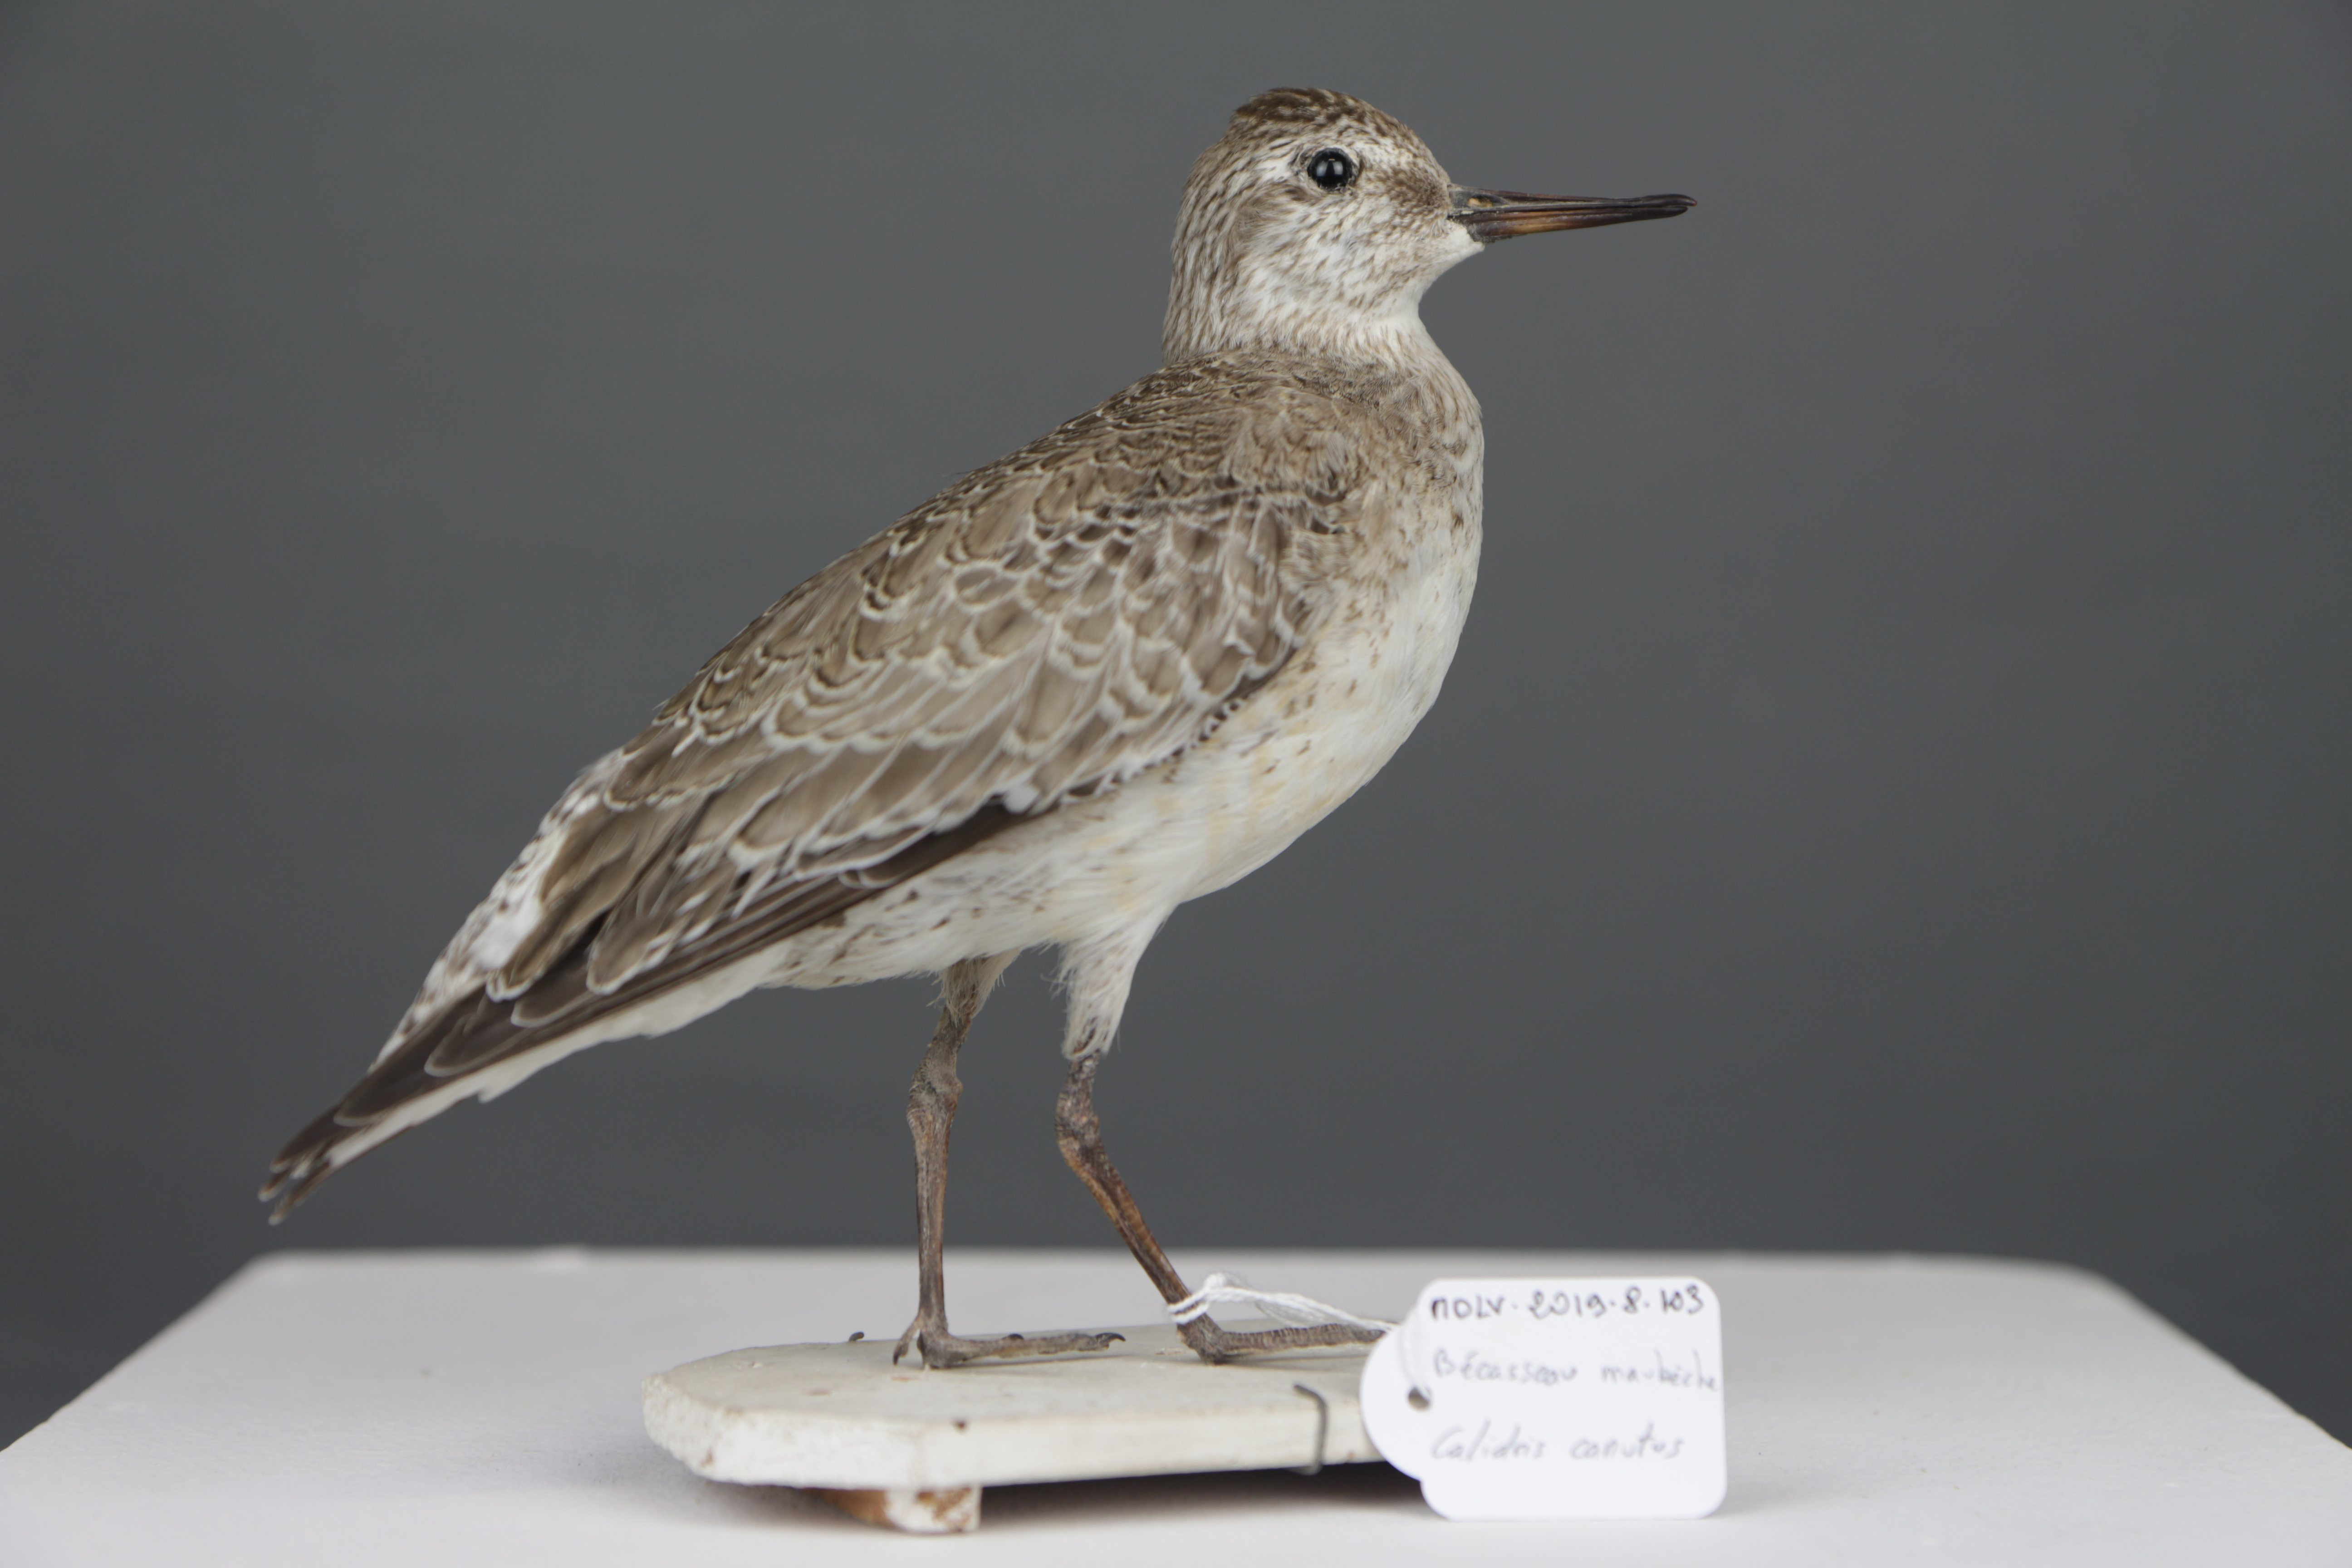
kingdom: Animalia
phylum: Chordata
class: Aves
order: Charadriiformes
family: Scolopacidae
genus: Calidris
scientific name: Calidris canutus
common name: Red knot
